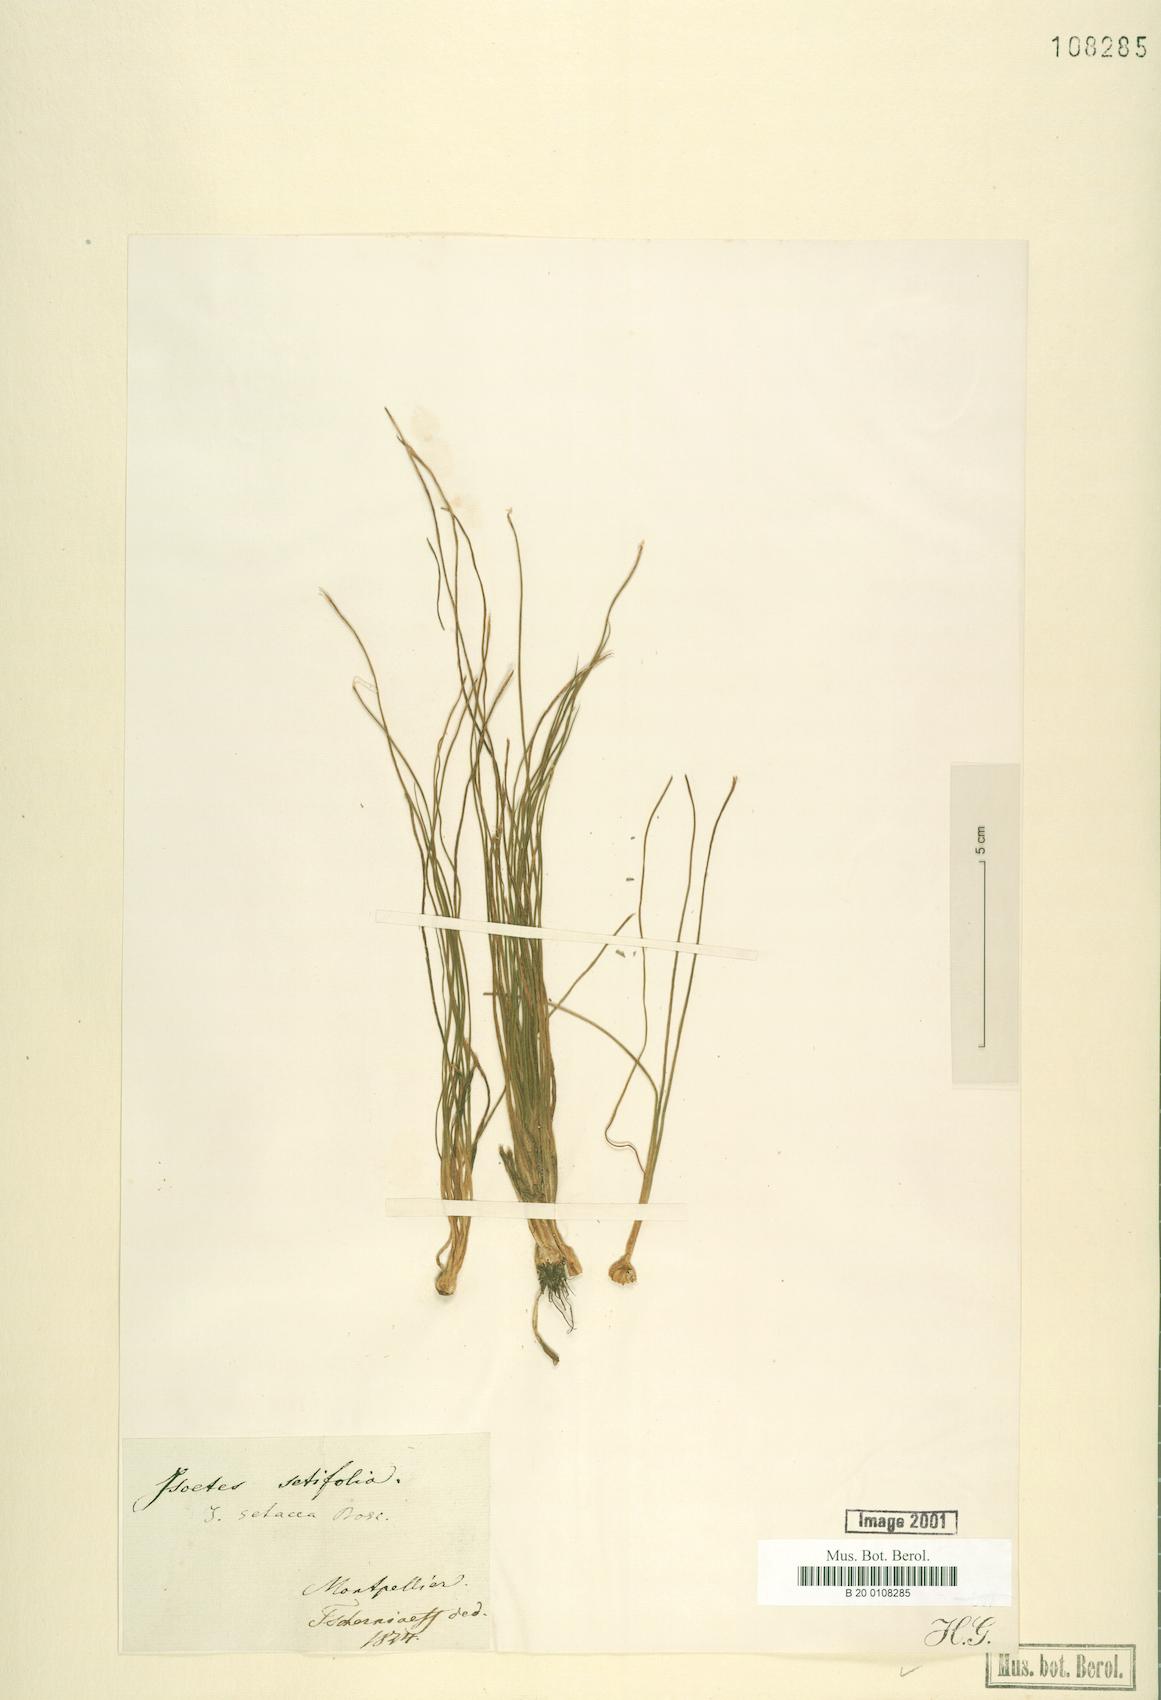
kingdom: Plantae
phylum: Tracheophyta
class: Lycopodiopsida
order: Isoetales
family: Isoetaceae
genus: Isoetes
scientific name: Isoetes lacustris
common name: Common quillwort
